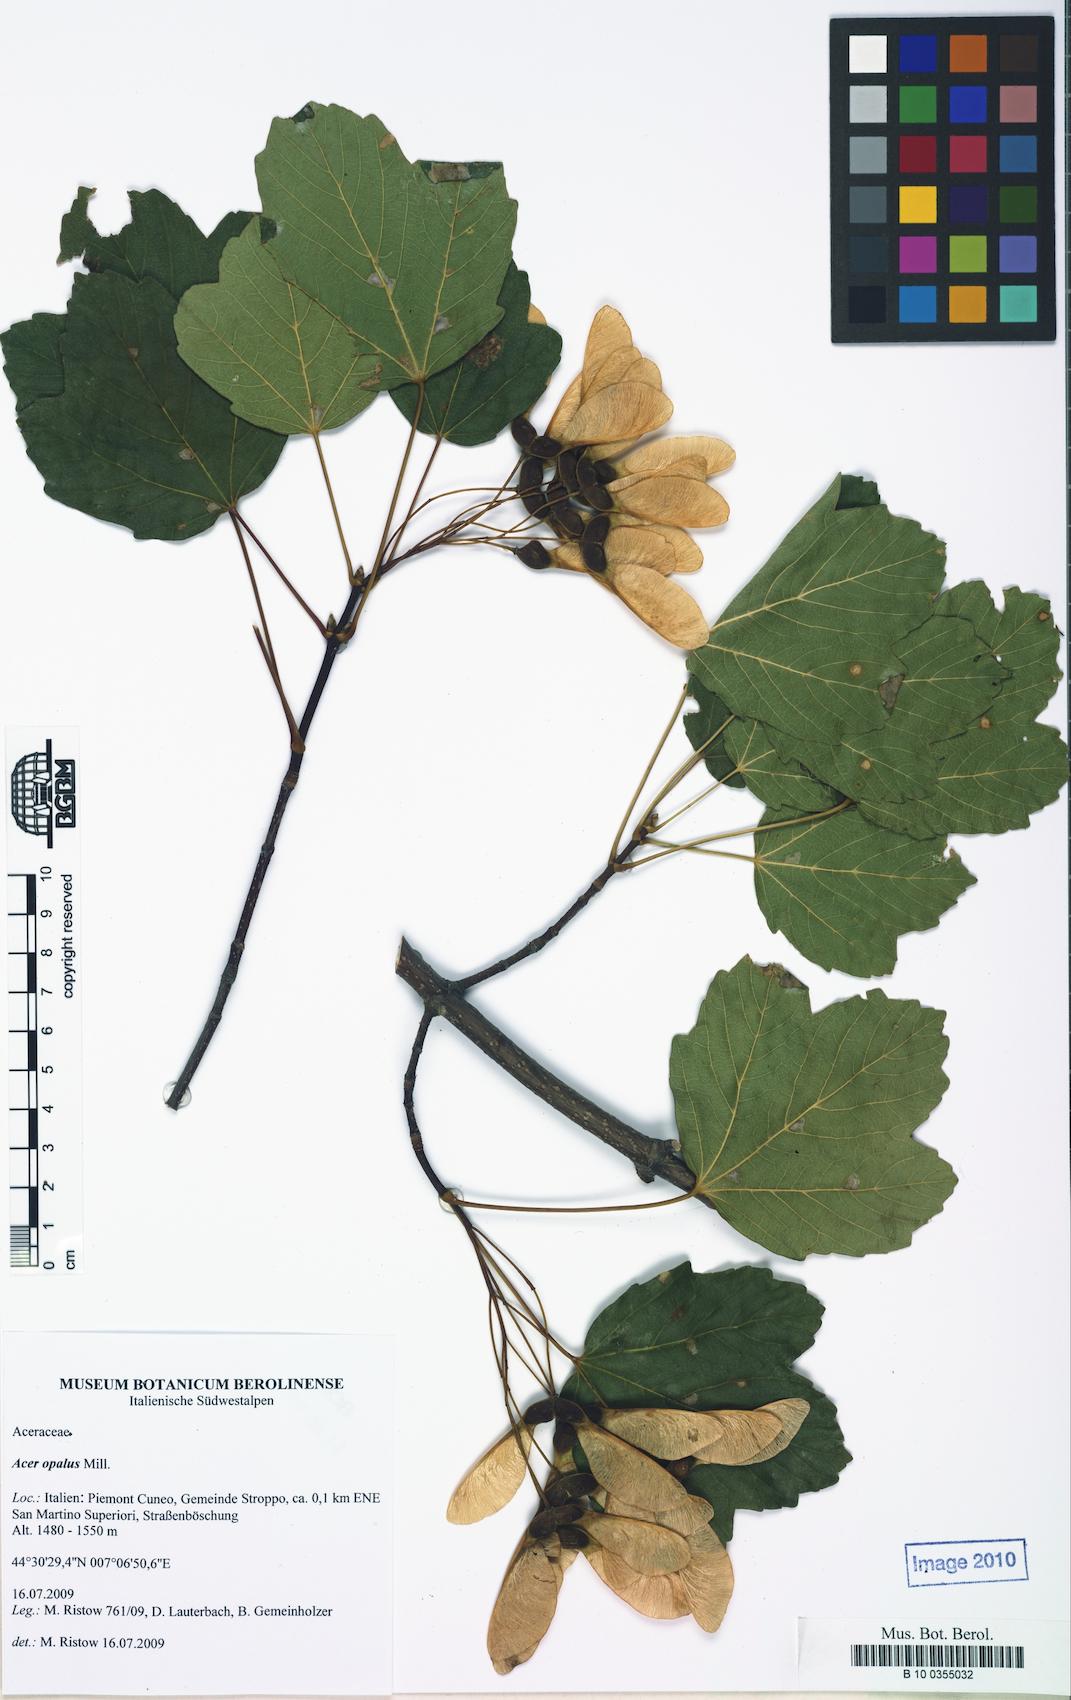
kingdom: Plantae
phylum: Tracheophyta
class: Magnoliopsida
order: Sapindales
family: Sapindaceae
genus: Acer
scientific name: Acer opalus
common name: Italian maple
